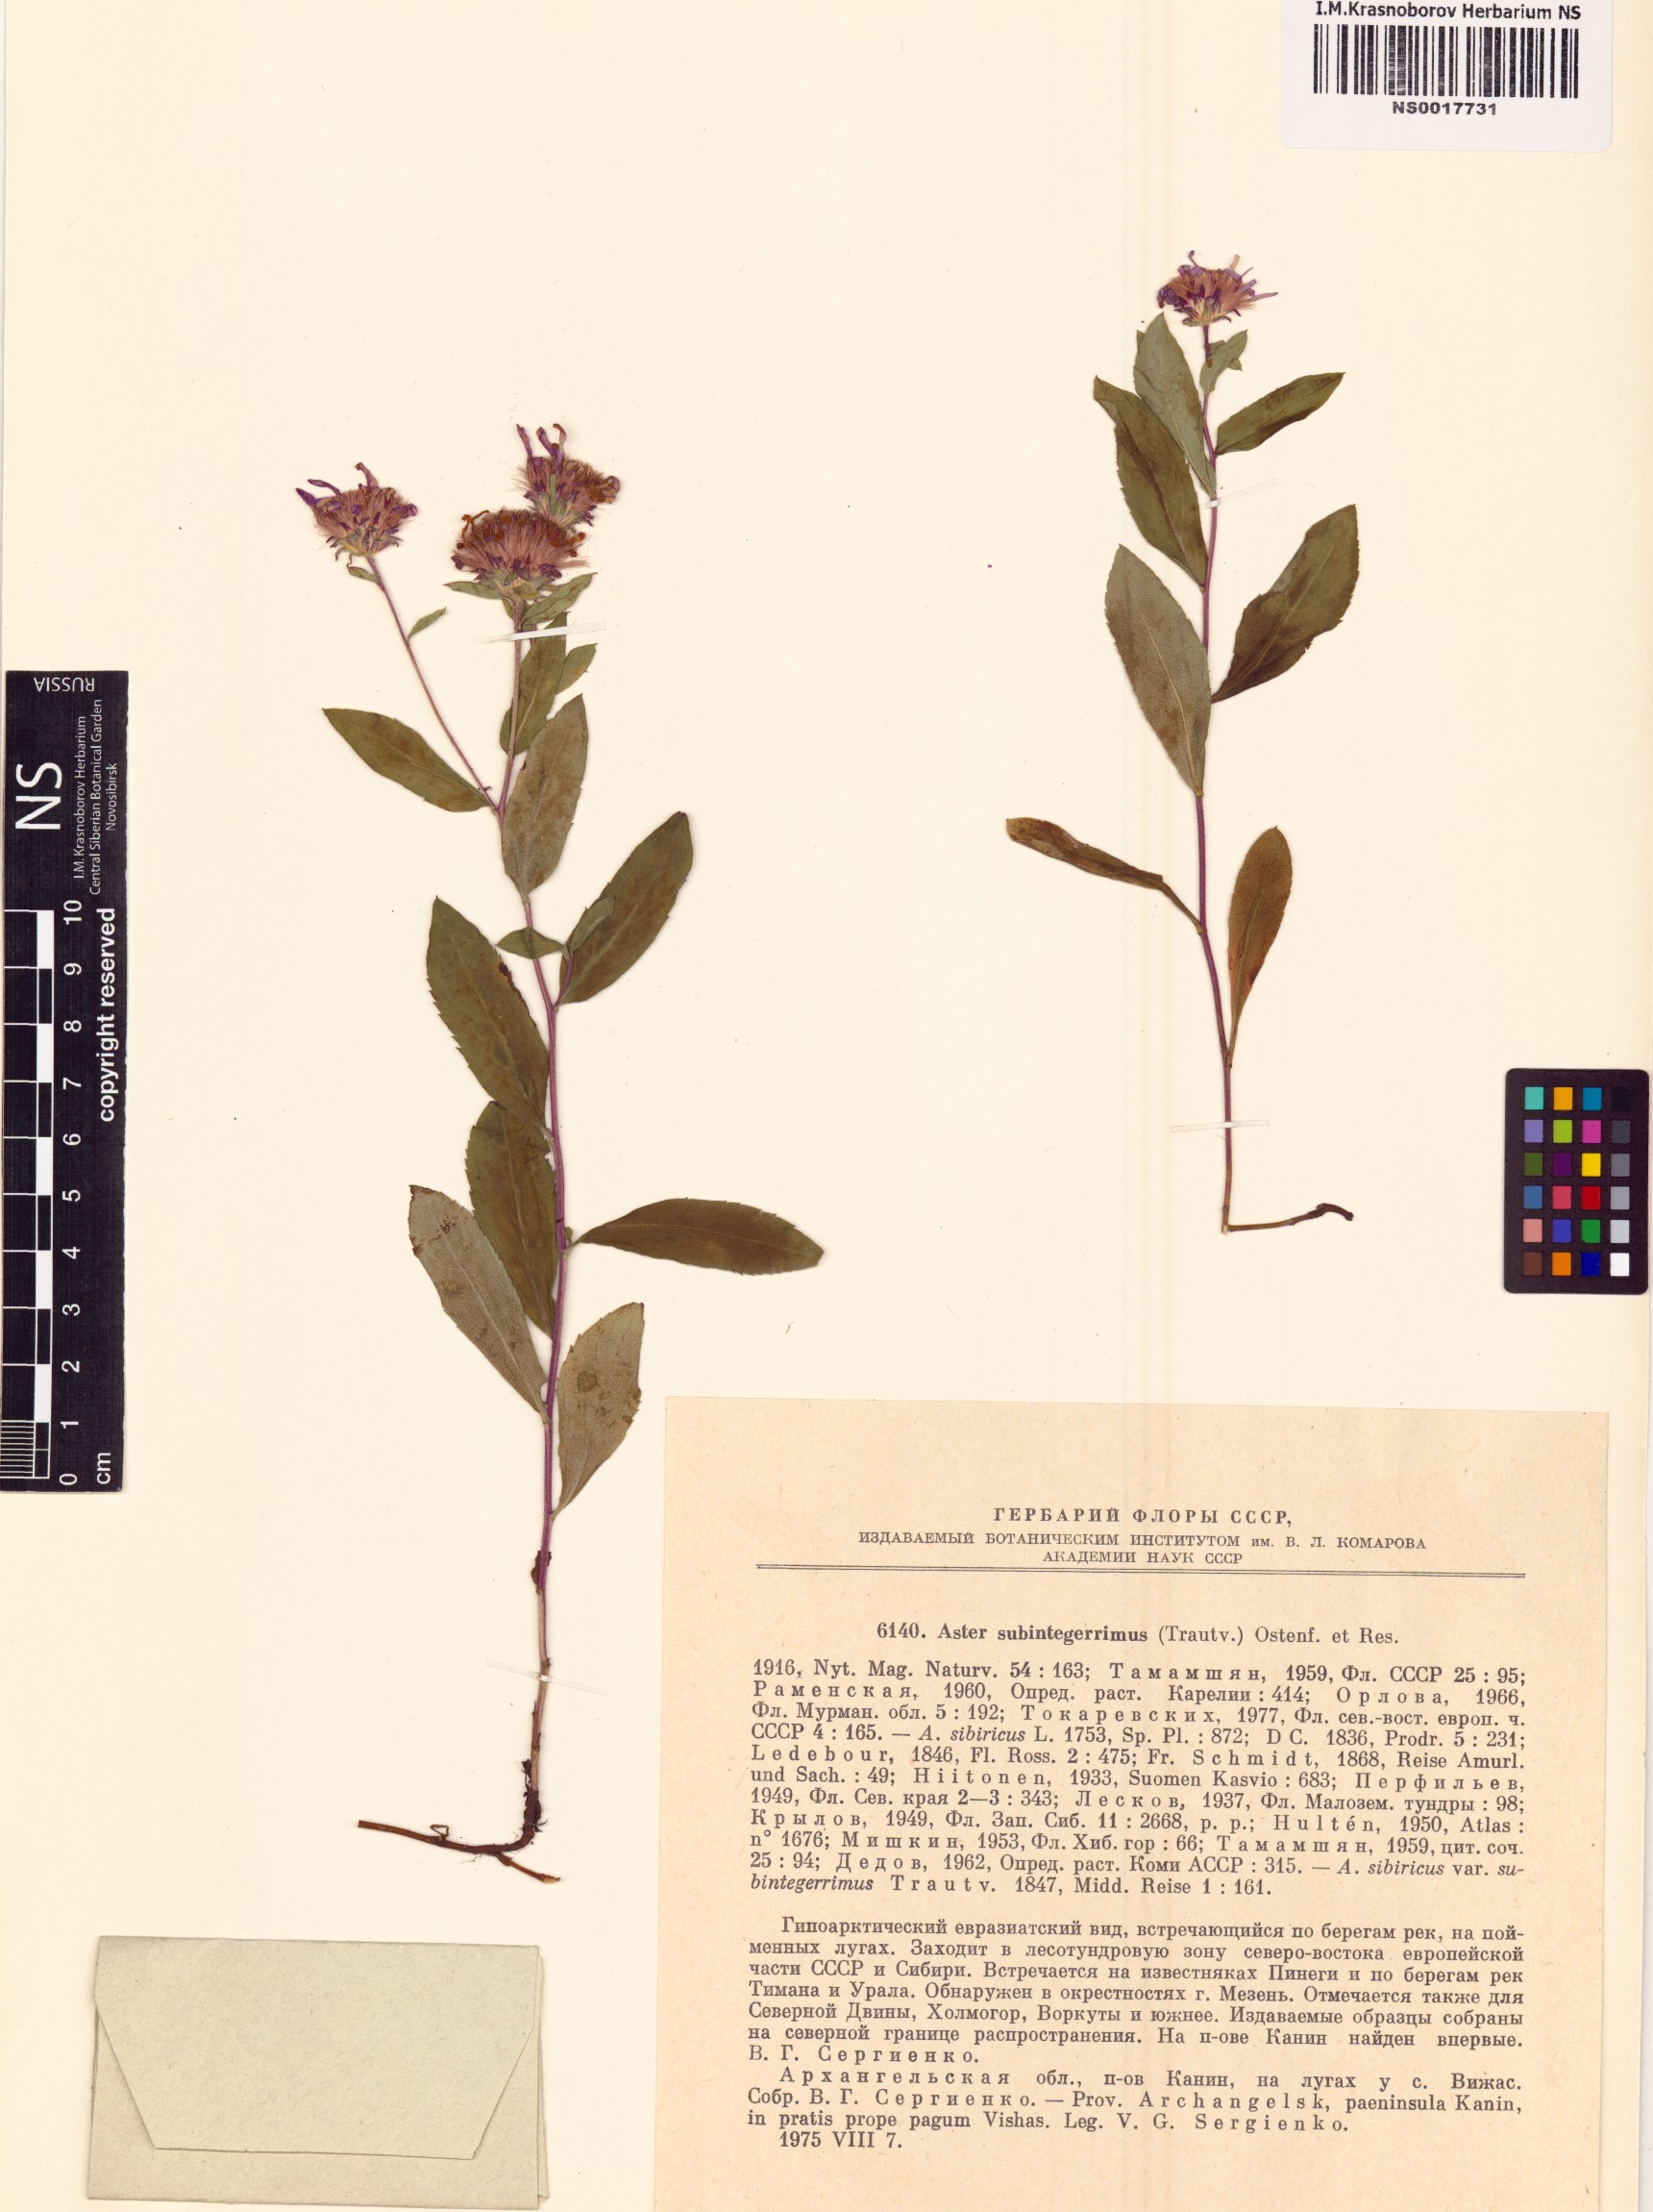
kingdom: Plantae
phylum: Tracheophyta
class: Magnoliopsida
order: Asterales
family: Asteraceae
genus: Eurybia
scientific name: Eurybia sibirica
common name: Arctic aster
